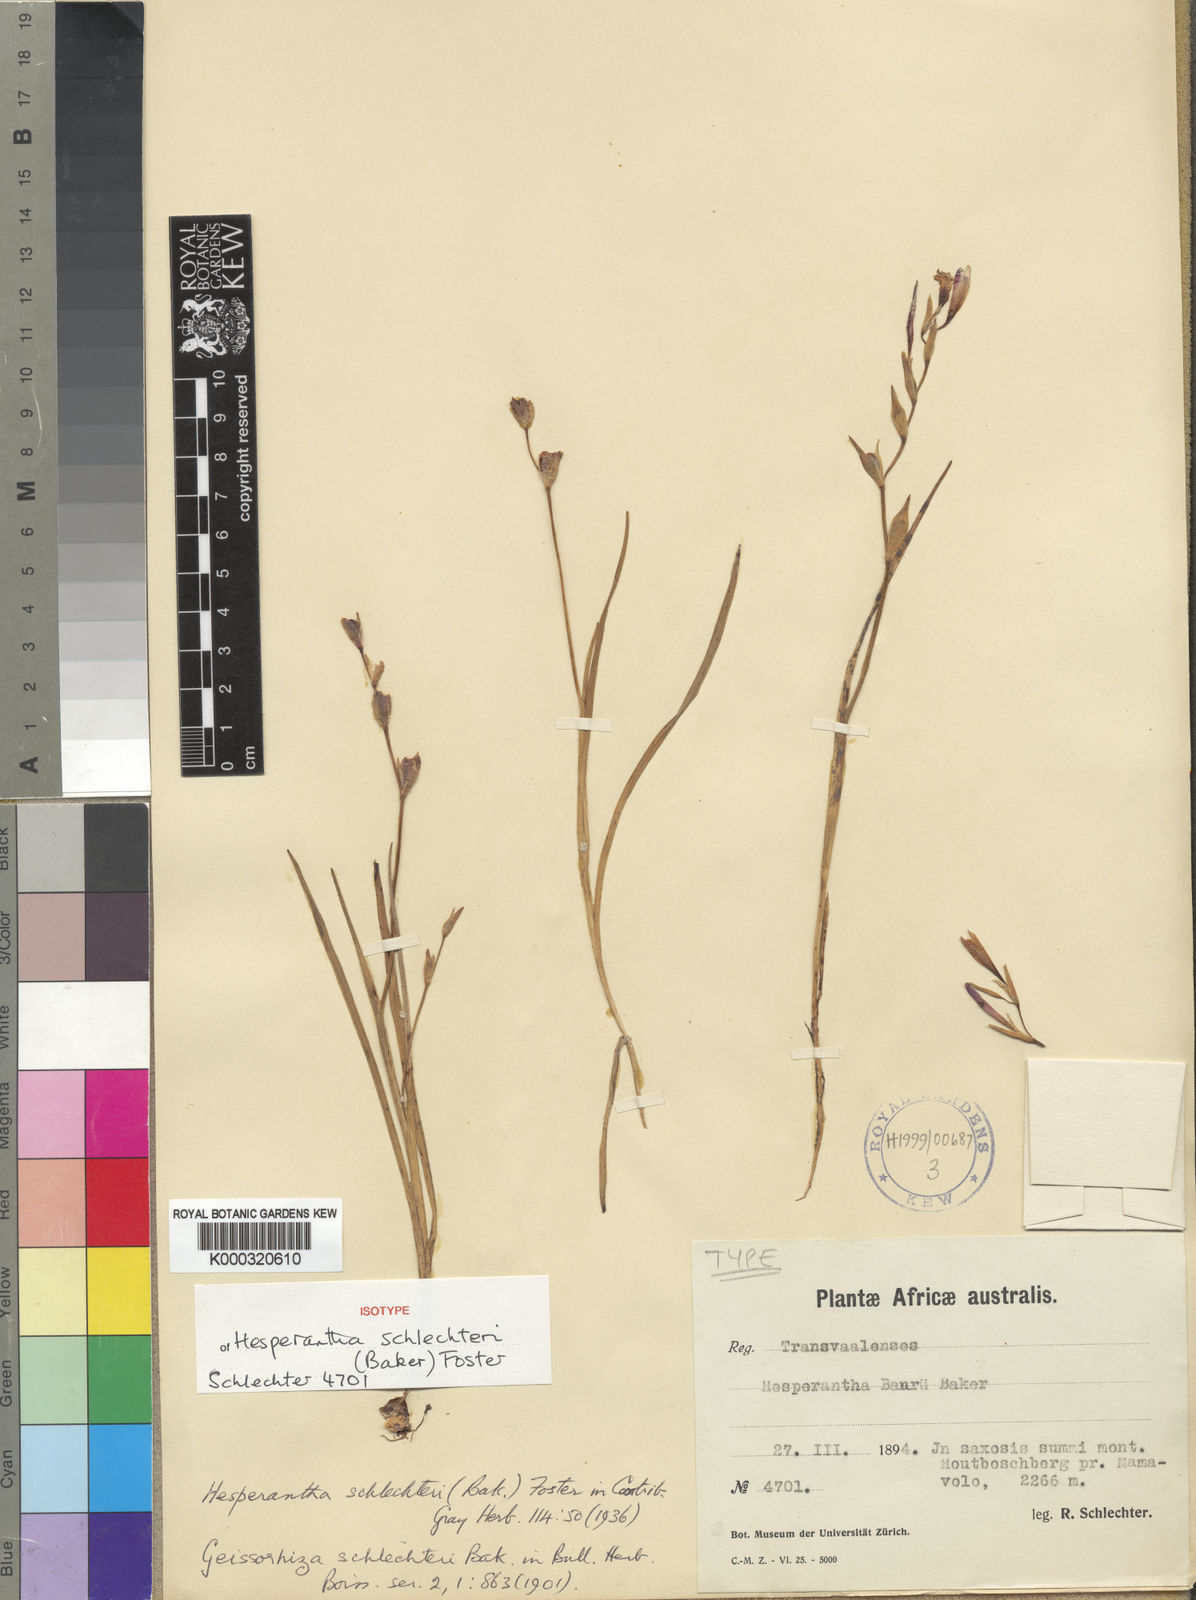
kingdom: Plantae
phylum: Tracheophyta
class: Liliopsida
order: Asparagales
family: Iridaceae
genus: Hesperantha
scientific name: Hesperantha schlechteri
